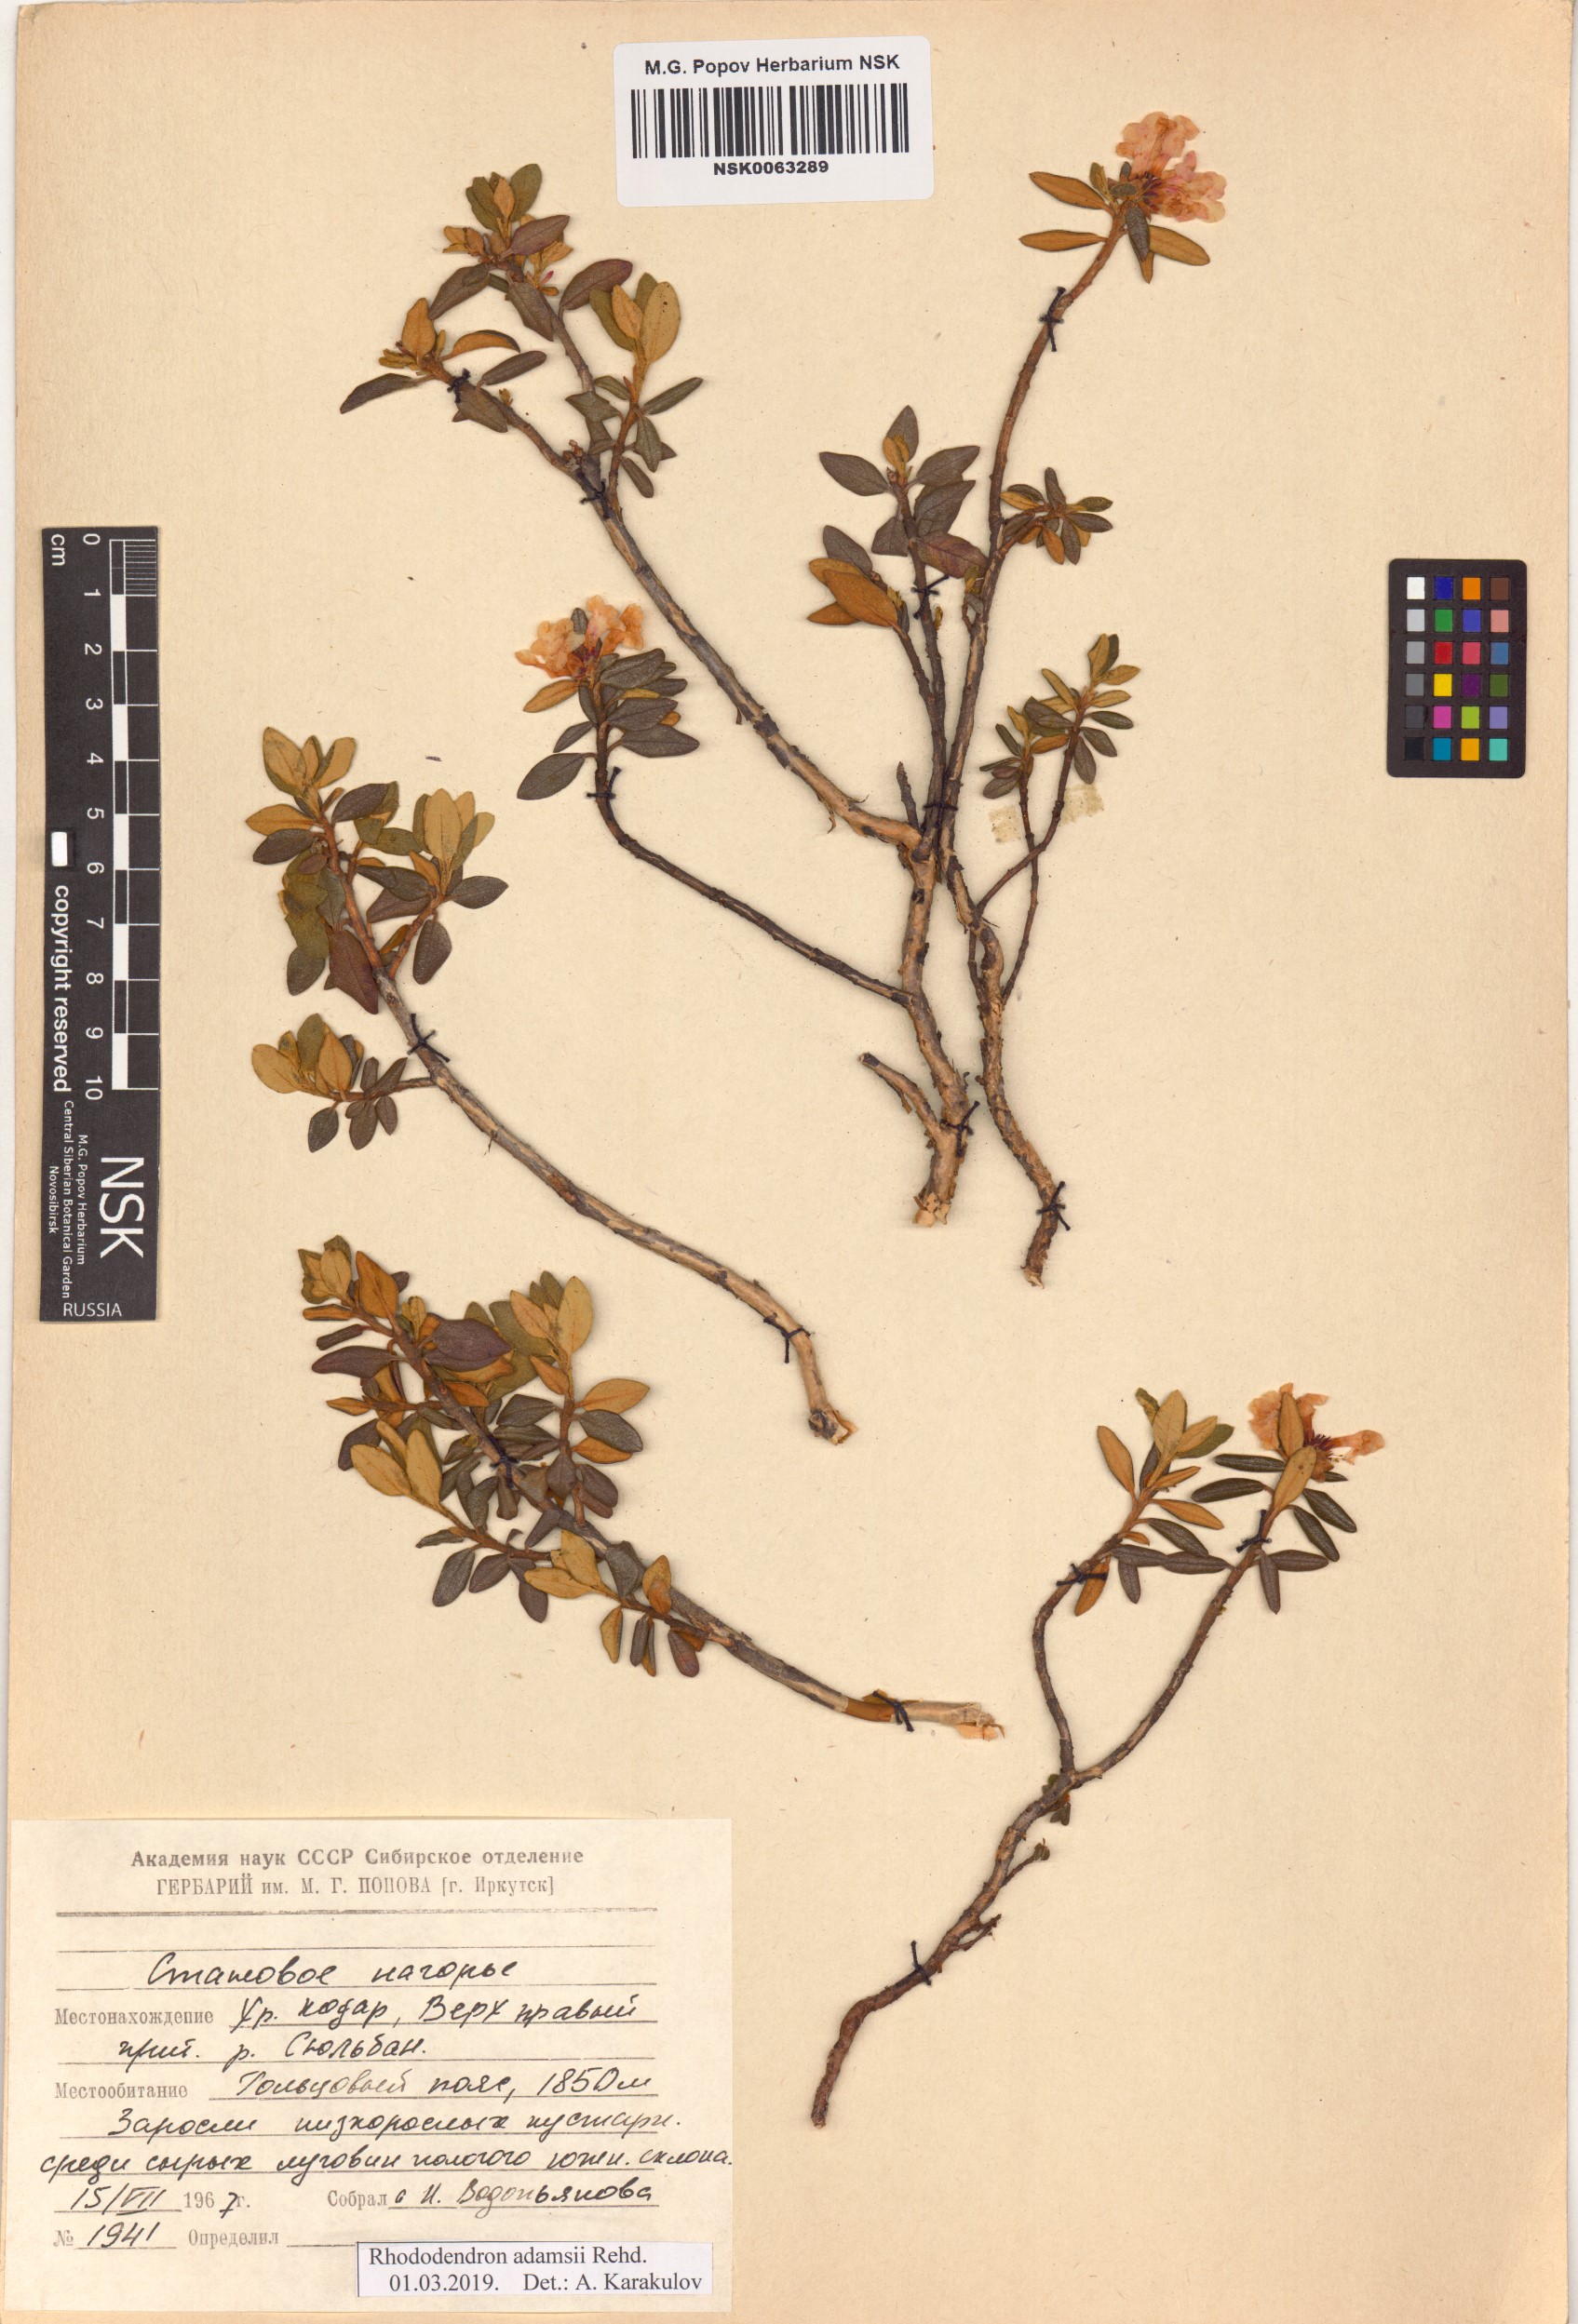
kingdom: Plantae
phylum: Tracheophyta
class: Magnoliopsida
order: Ericales
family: Ericaceae
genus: Rhododendron
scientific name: Rhododendron adamsii
